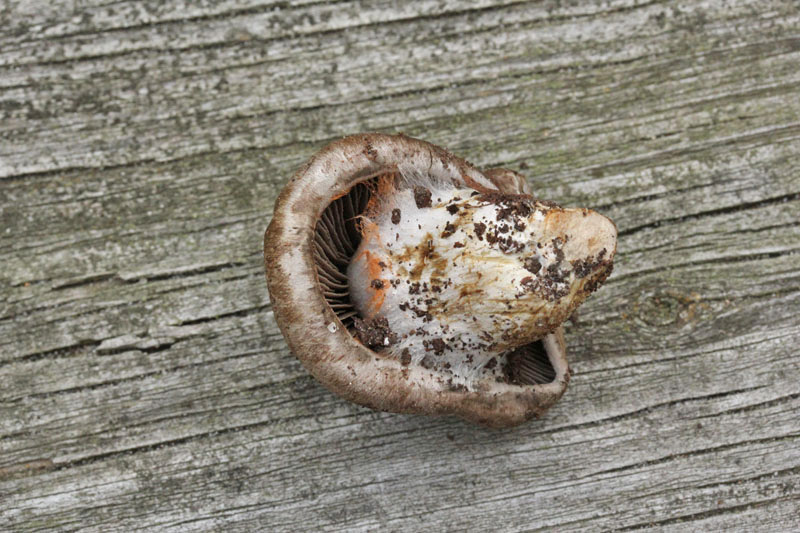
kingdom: Fungi
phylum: Basidiomycota
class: Agaricomycetes
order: Agaricales
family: Cortinariaceae
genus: Cortinarius
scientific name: Cortinarius
